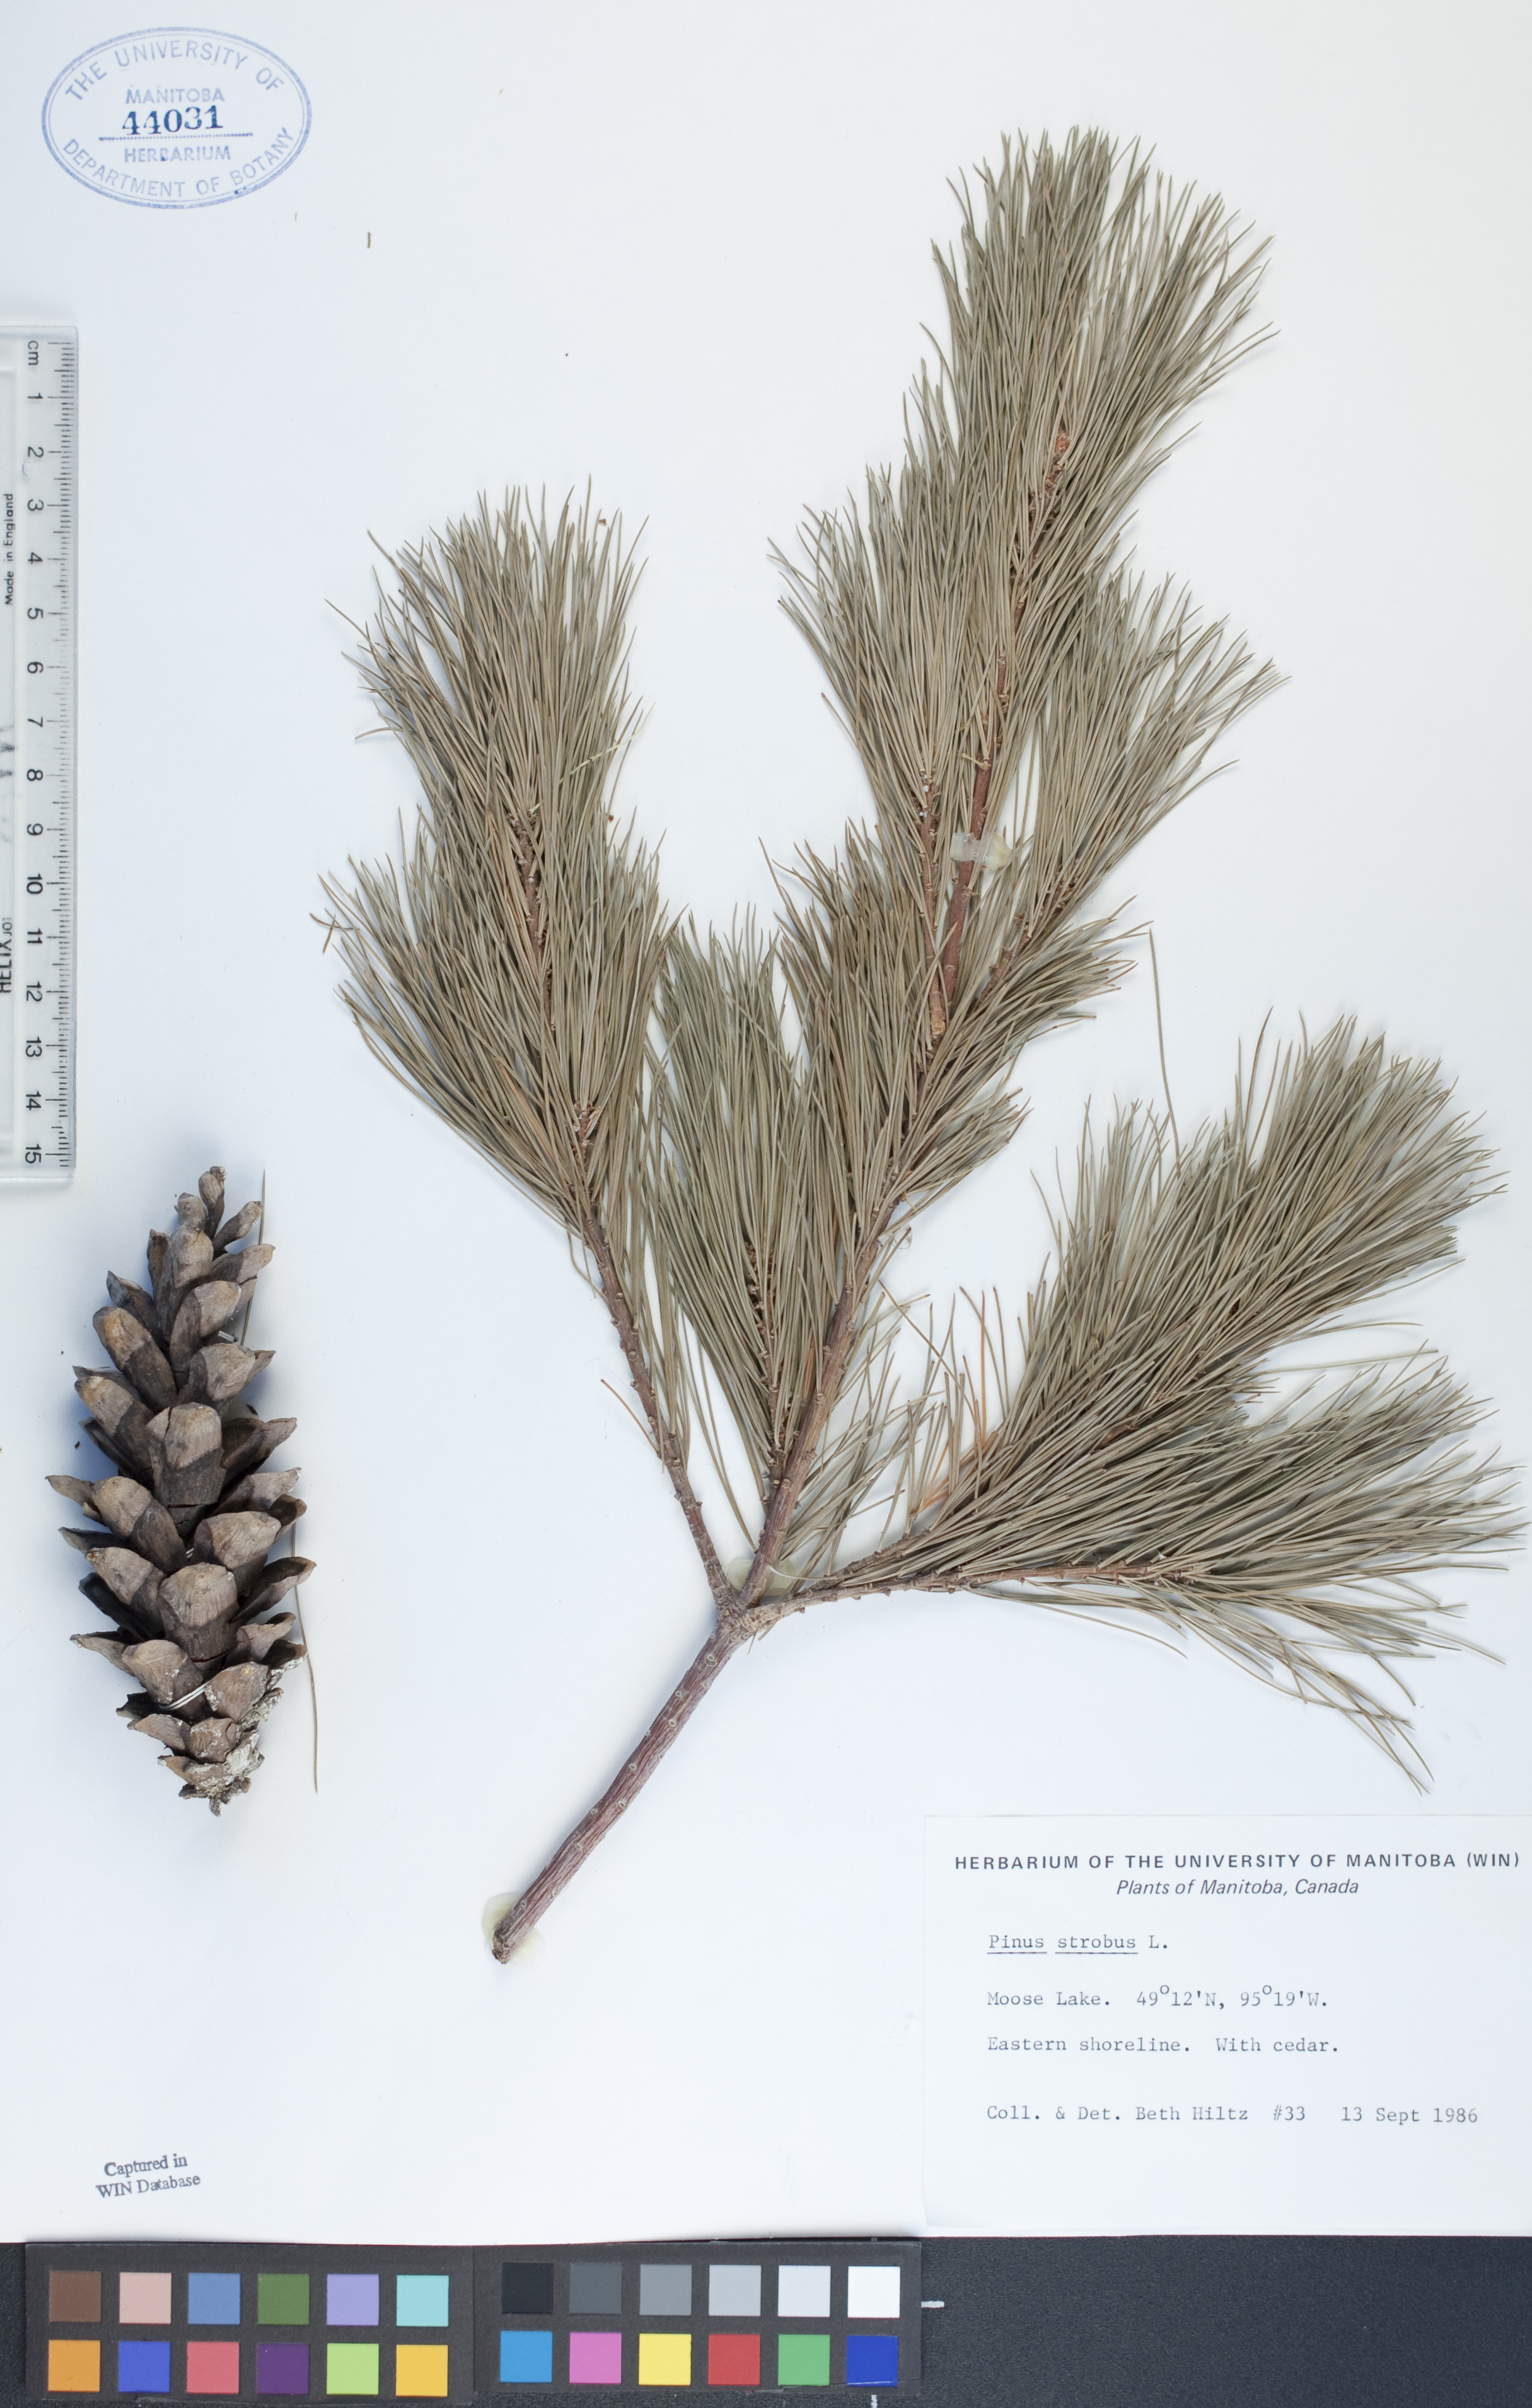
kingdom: Plantae
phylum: Tracheophyta
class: Pinopsida
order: Pinales
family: Pinaceae
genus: Pinus
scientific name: Pinus strobus
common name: Weymouth pine
